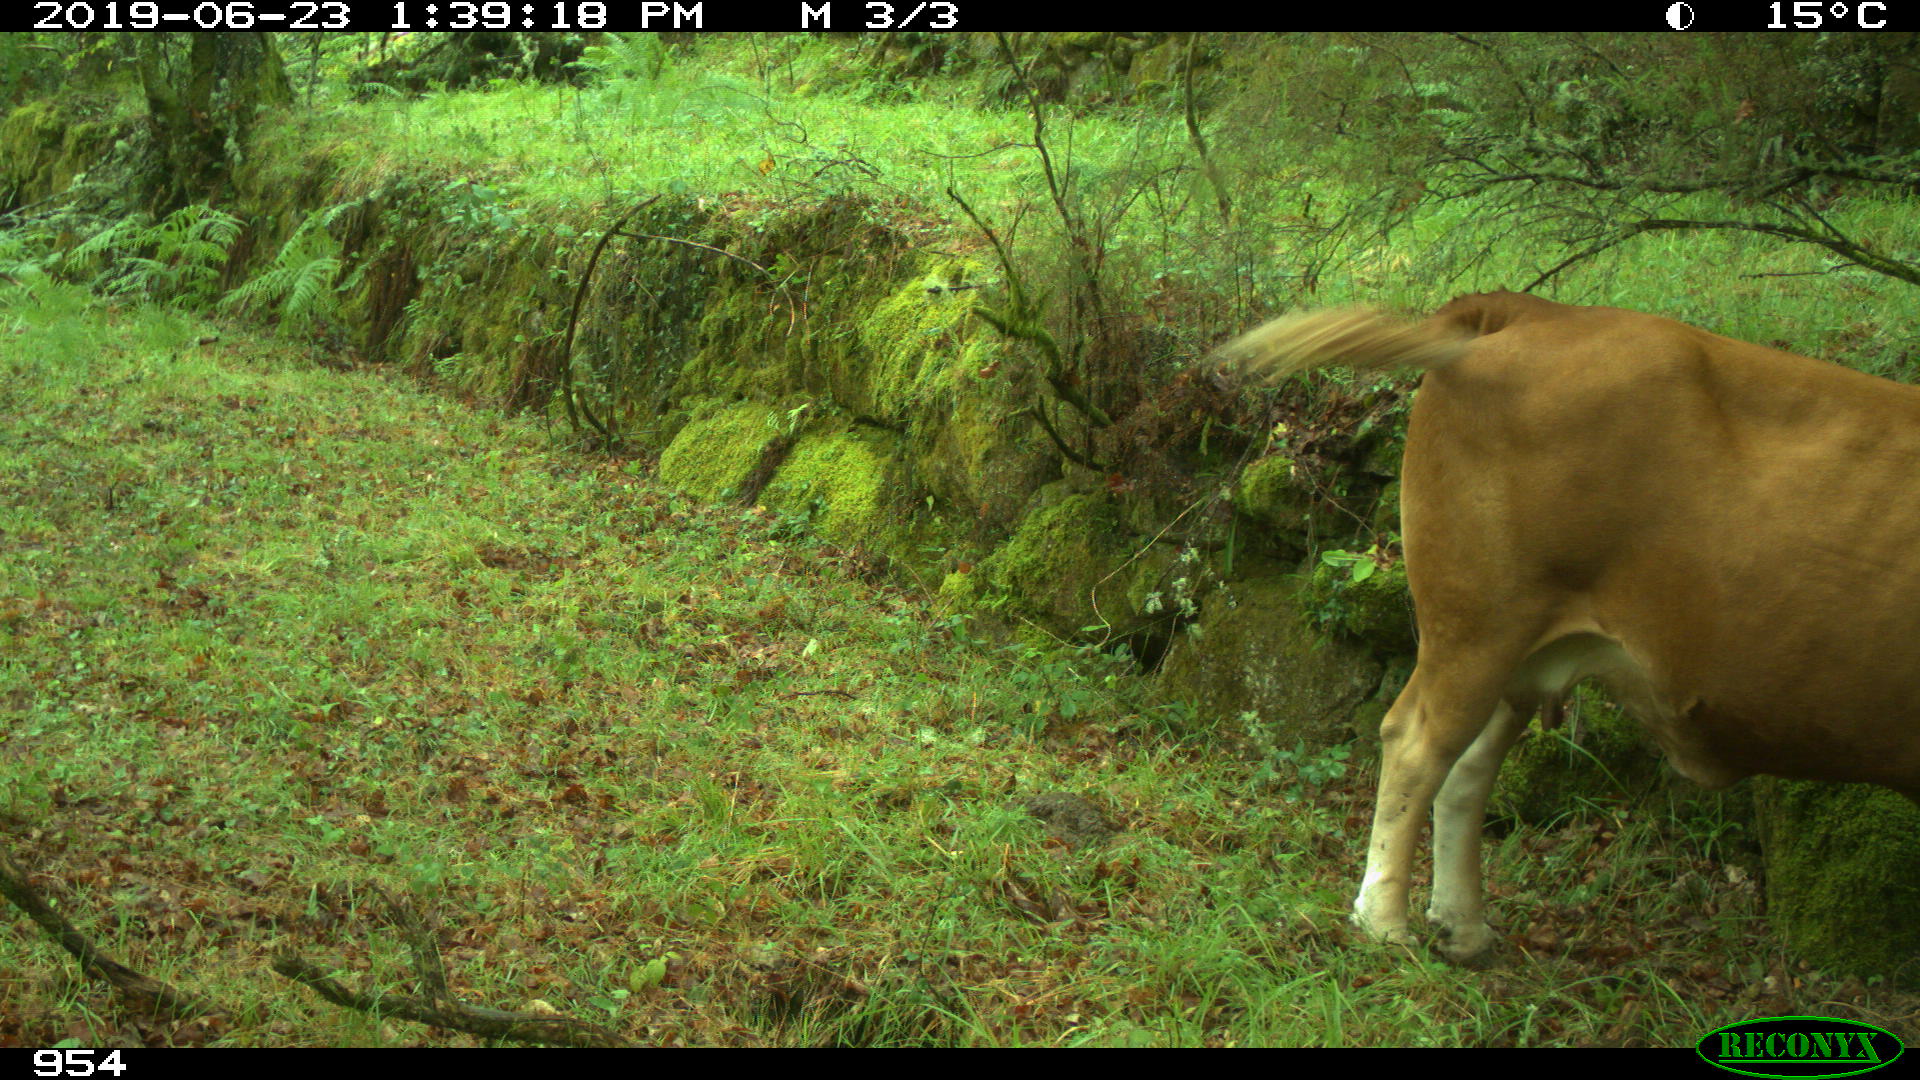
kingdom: Animalia
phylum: Chordata
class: Mammalia
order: Artiodactyla
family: Bovidae
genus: Bos
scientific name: Bos taurus
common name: Domesticated cattle
